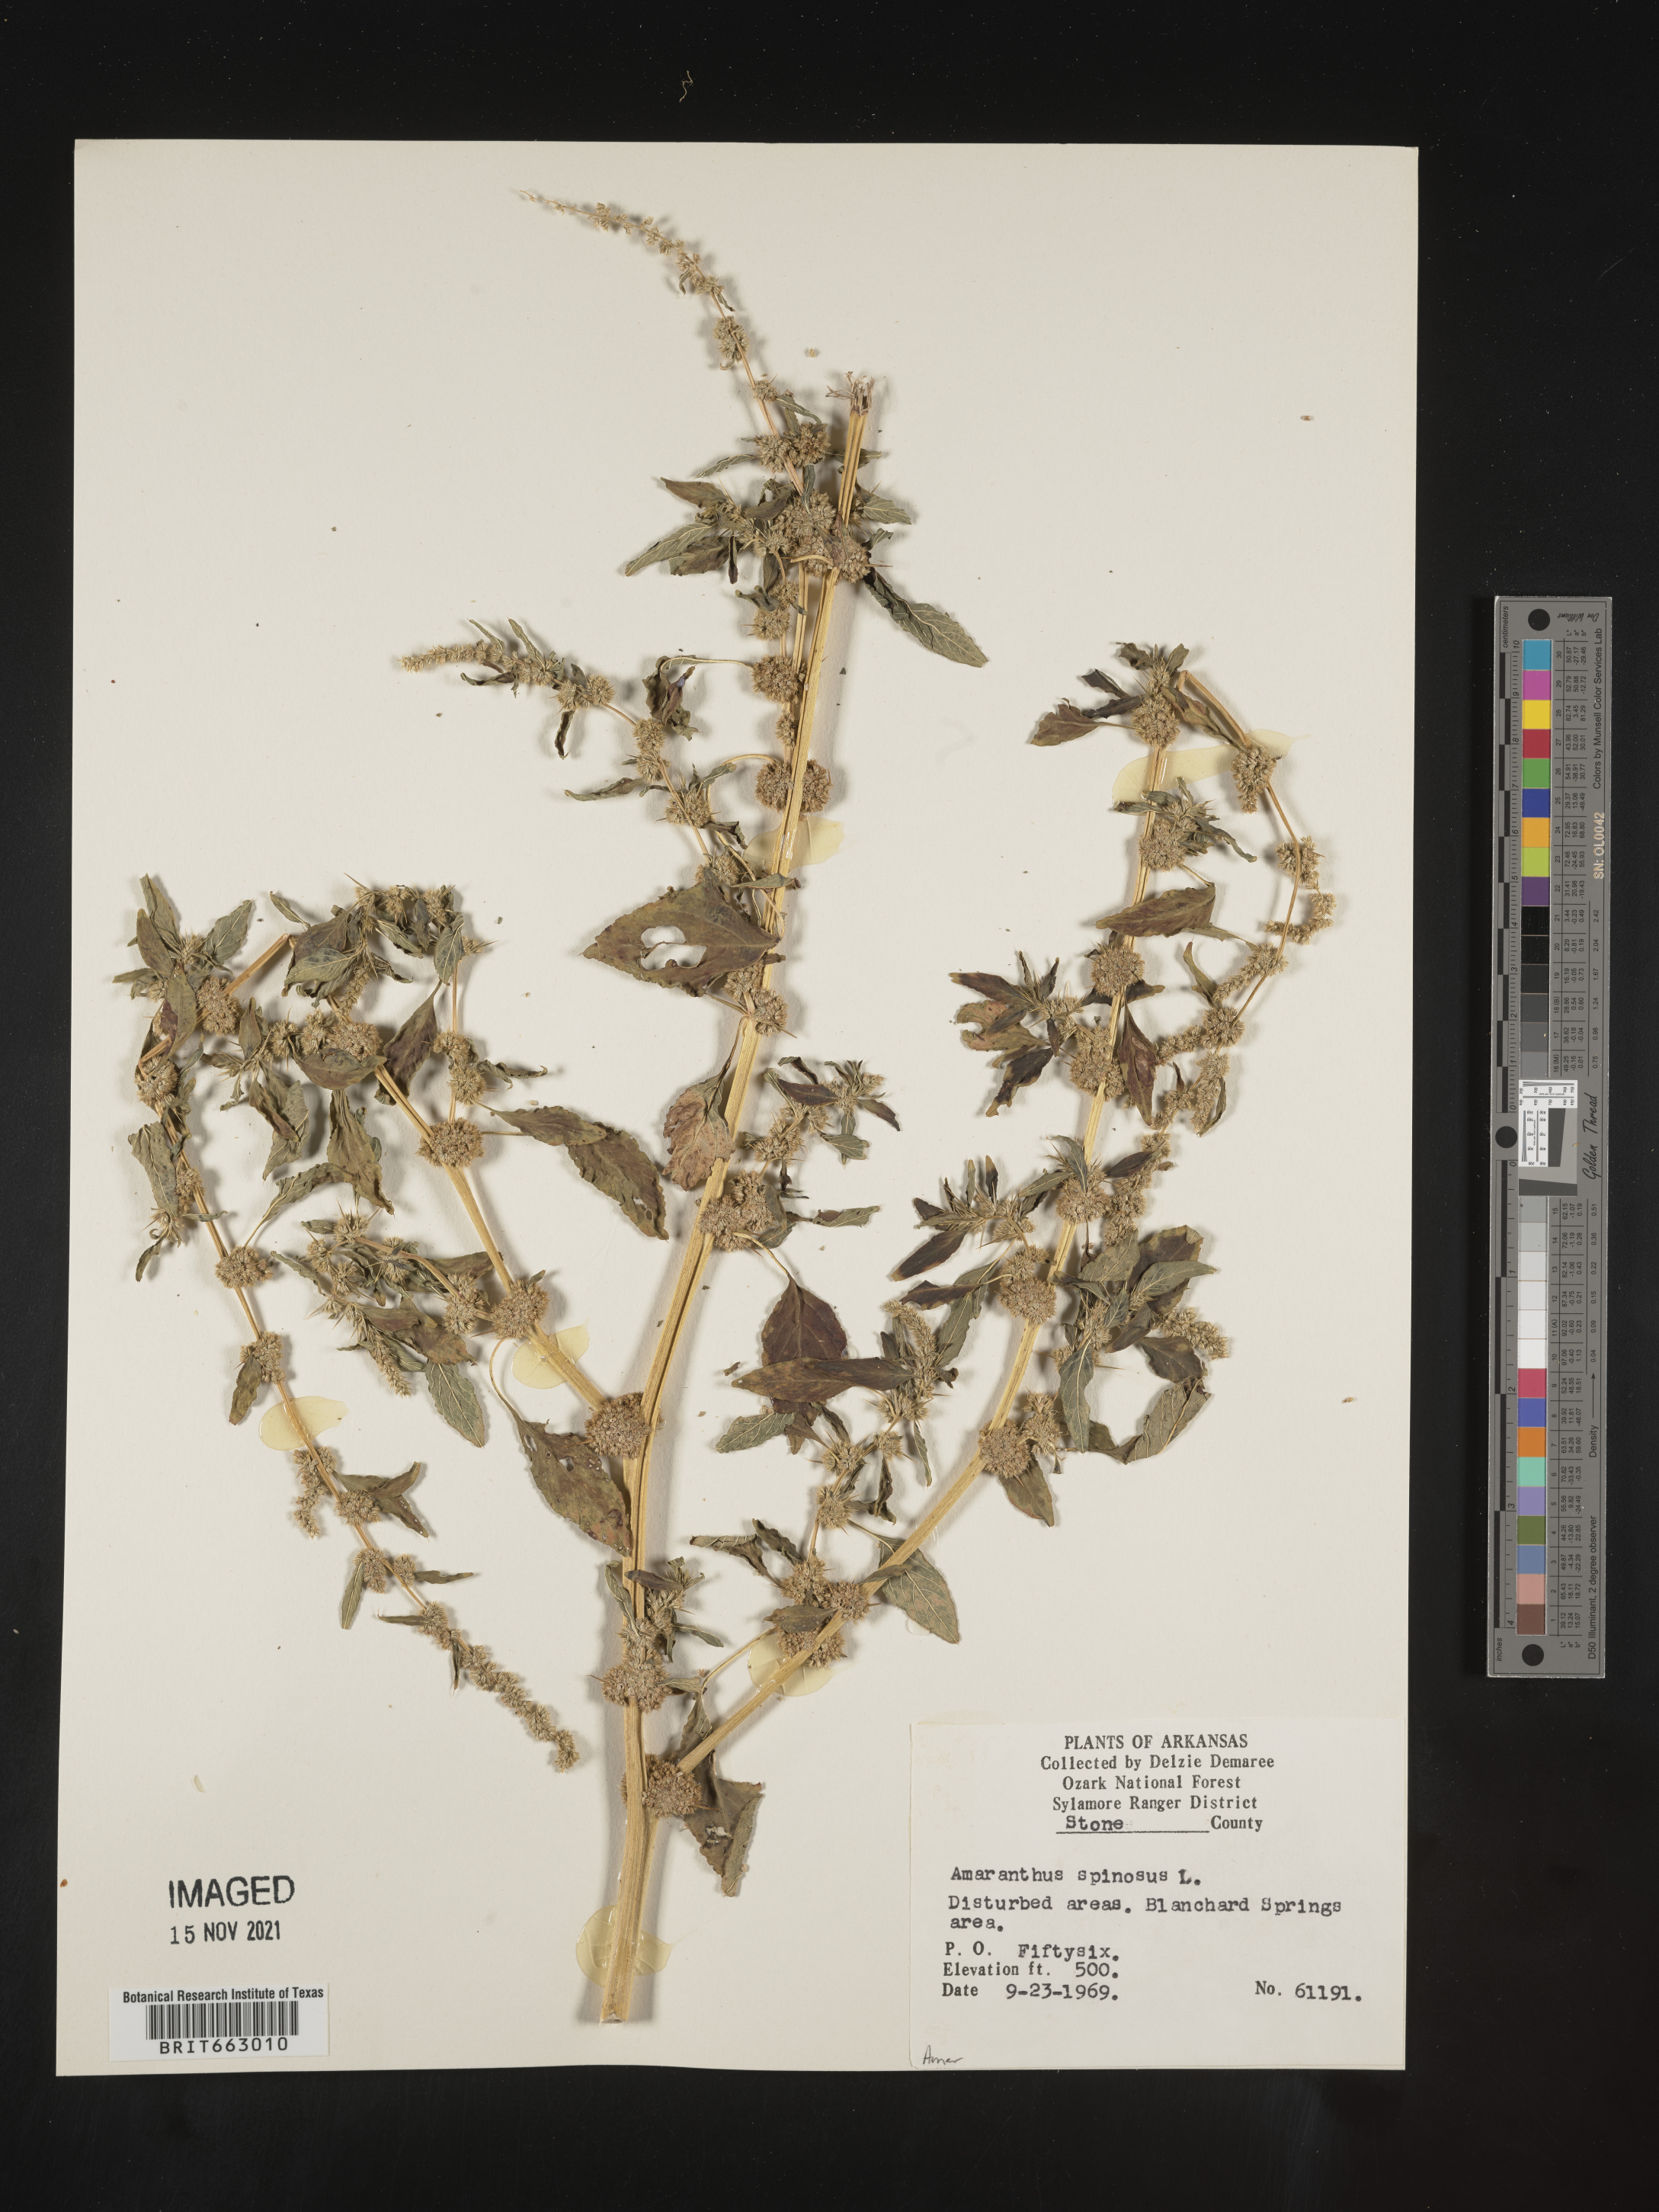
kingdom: Plantae
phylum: Tracheophyta
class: Magnoliopsida
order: Caryophyllales
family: Amaranthaceae
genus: Amaranthus
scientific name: Amaranthus spinosus
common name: Spiny amaranth
